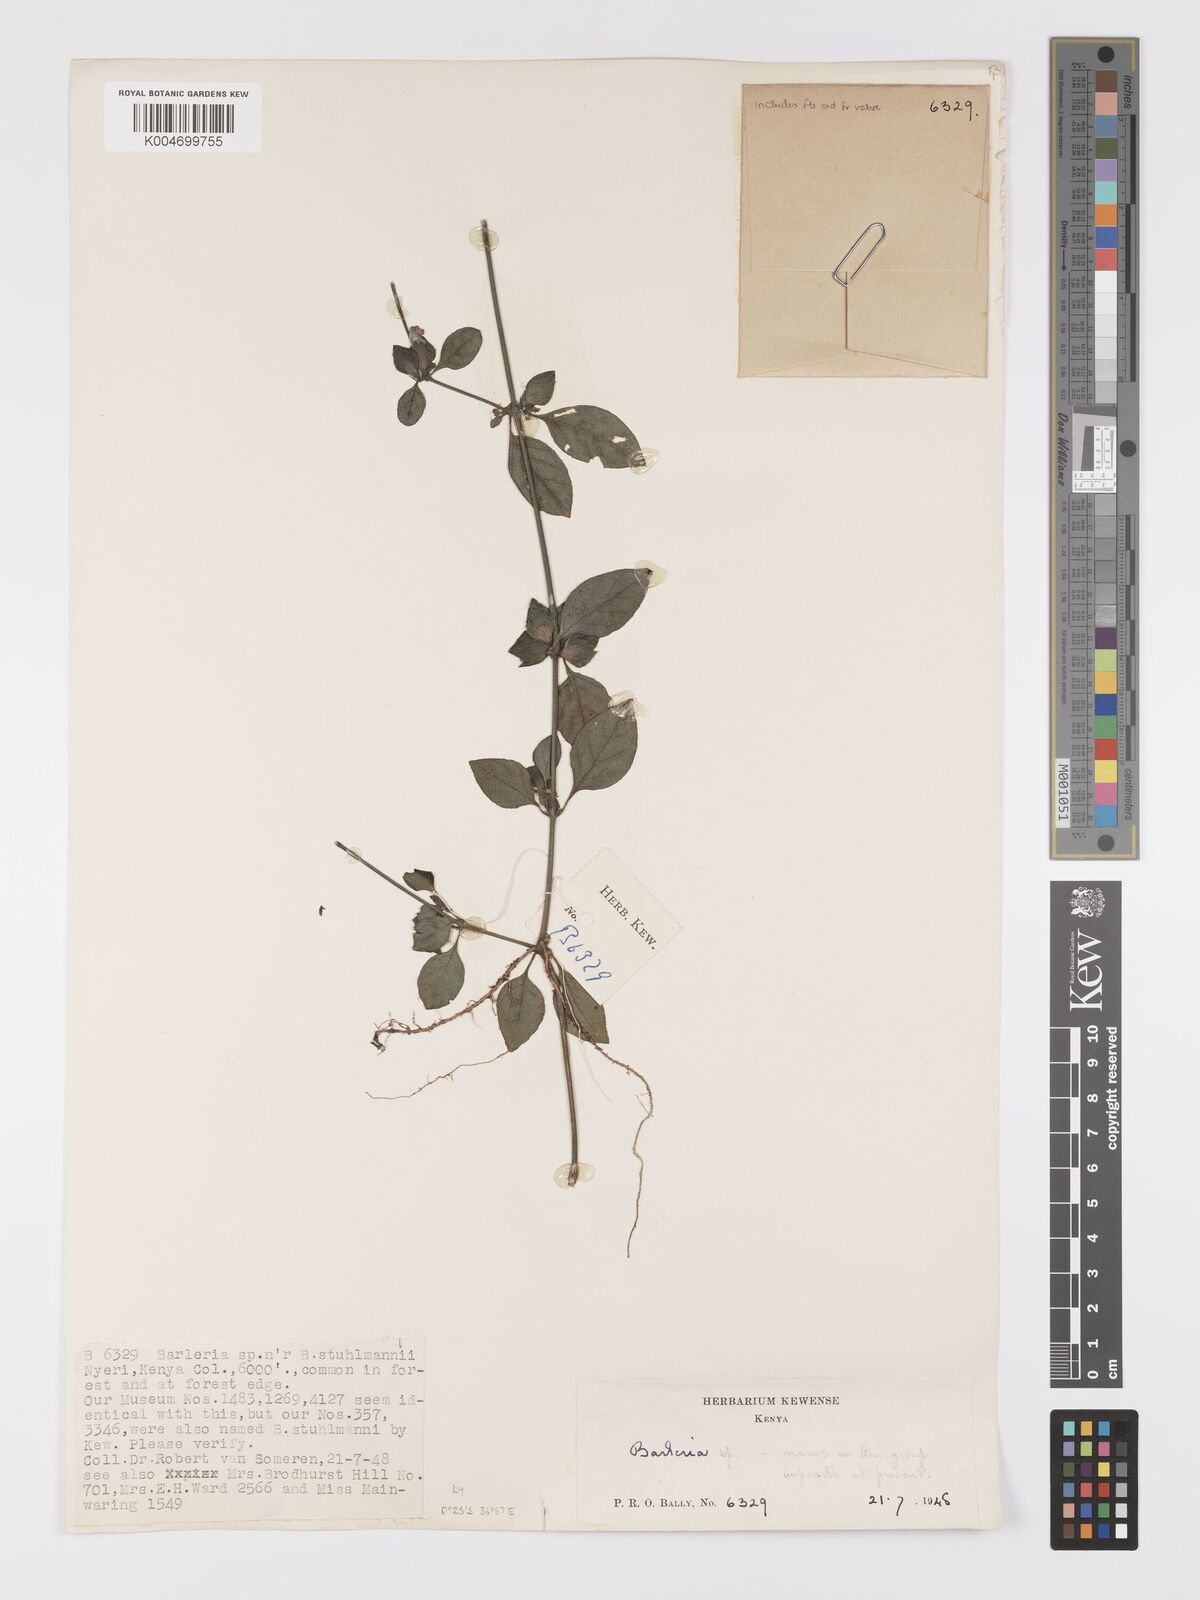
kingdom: Plantae
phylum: Tracheophyta
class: Magnoliopsida
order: Lamiales
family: Acanthaceae
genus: Barleria
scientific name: Barleria ventricosa
